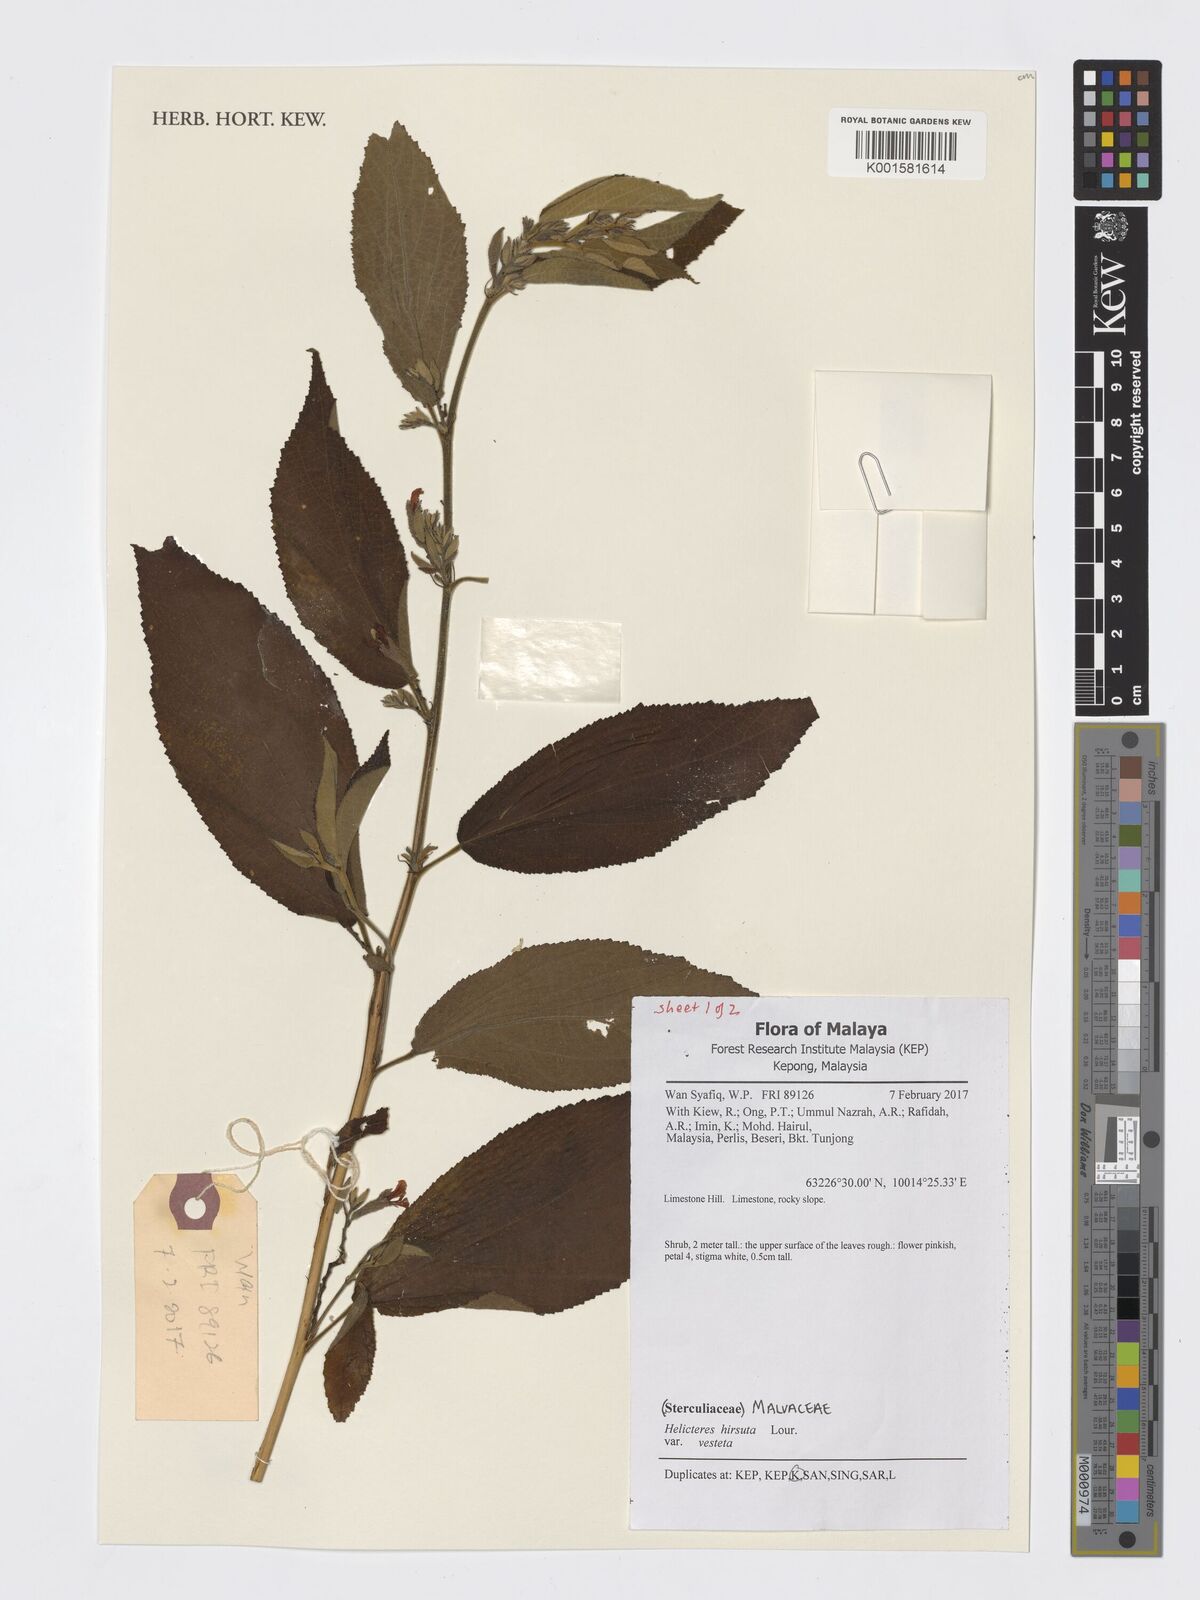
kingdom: Plantae
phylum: Tracheophyta
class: Magnoliopsida
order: Malvales
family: Malvaceae
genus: Helicteres
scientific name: Helicteres hirsuta
